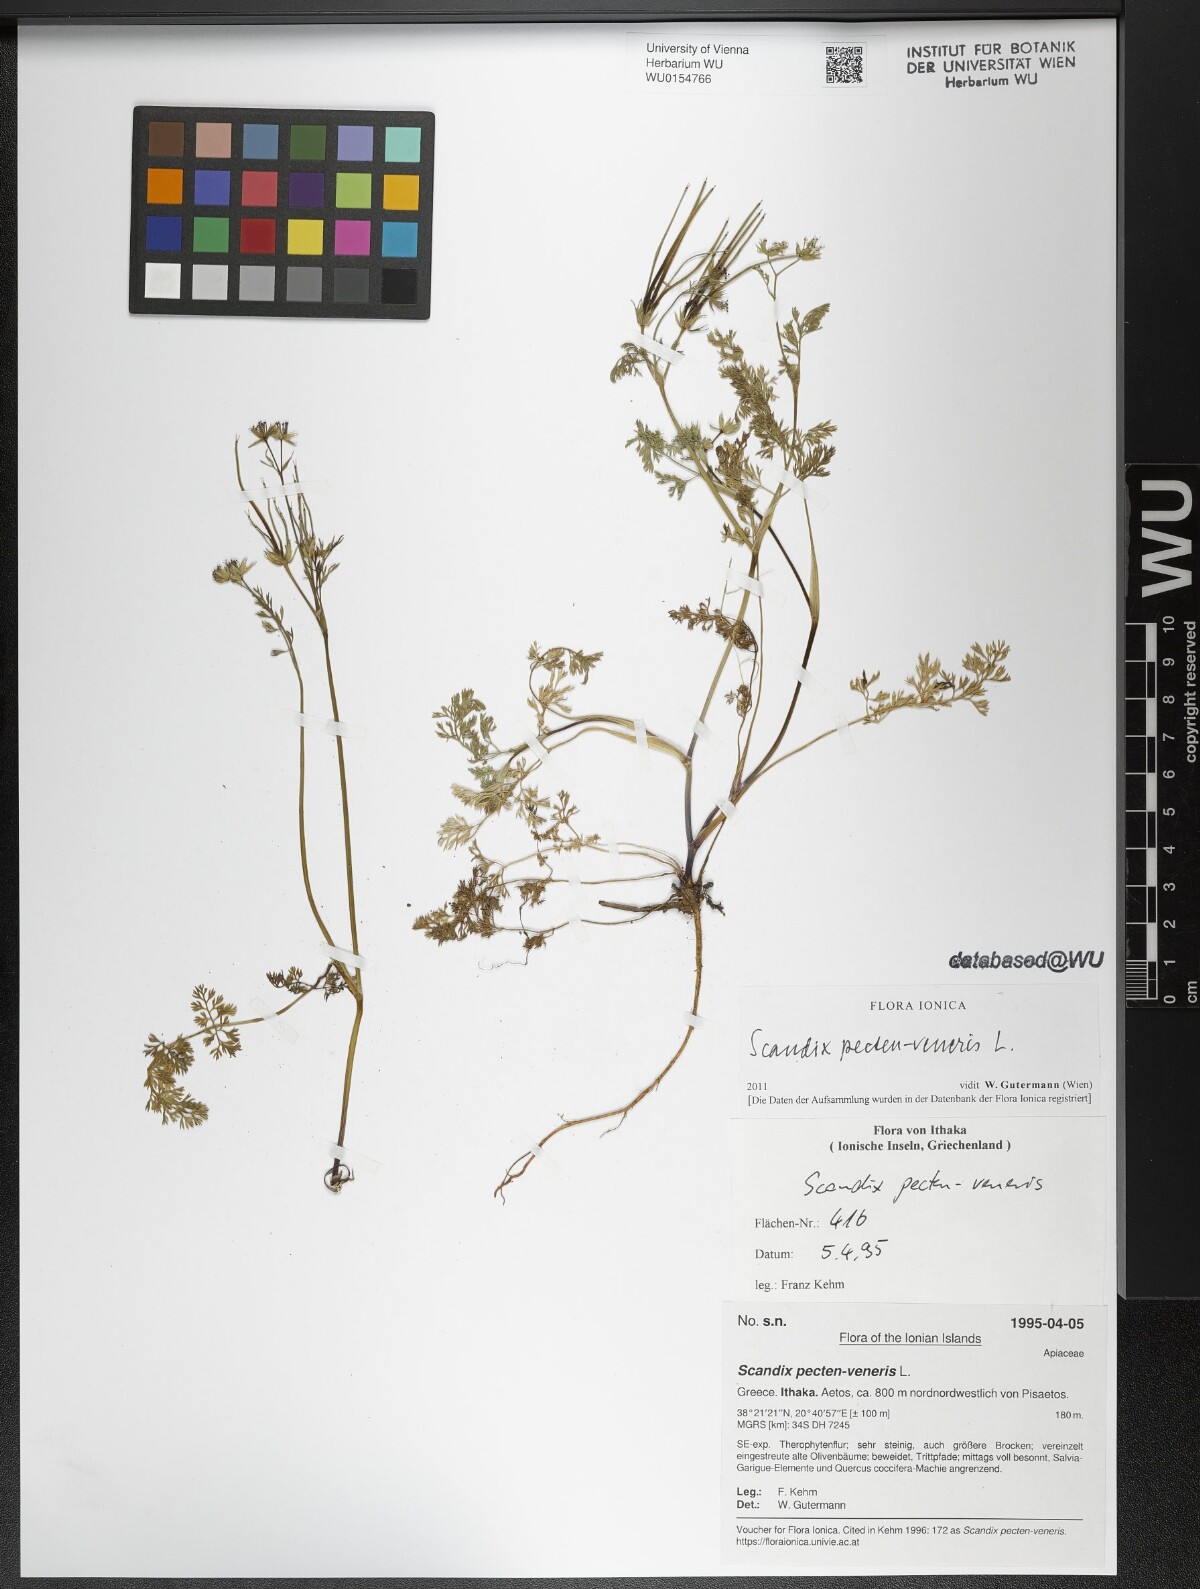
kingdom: Plantae
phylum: Tracheophyta
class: Magnoliopsida
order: Apiales
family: Apiaceae
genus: Scandix
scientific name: Scandix pecten-veneris
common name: Shepherd's-needle
